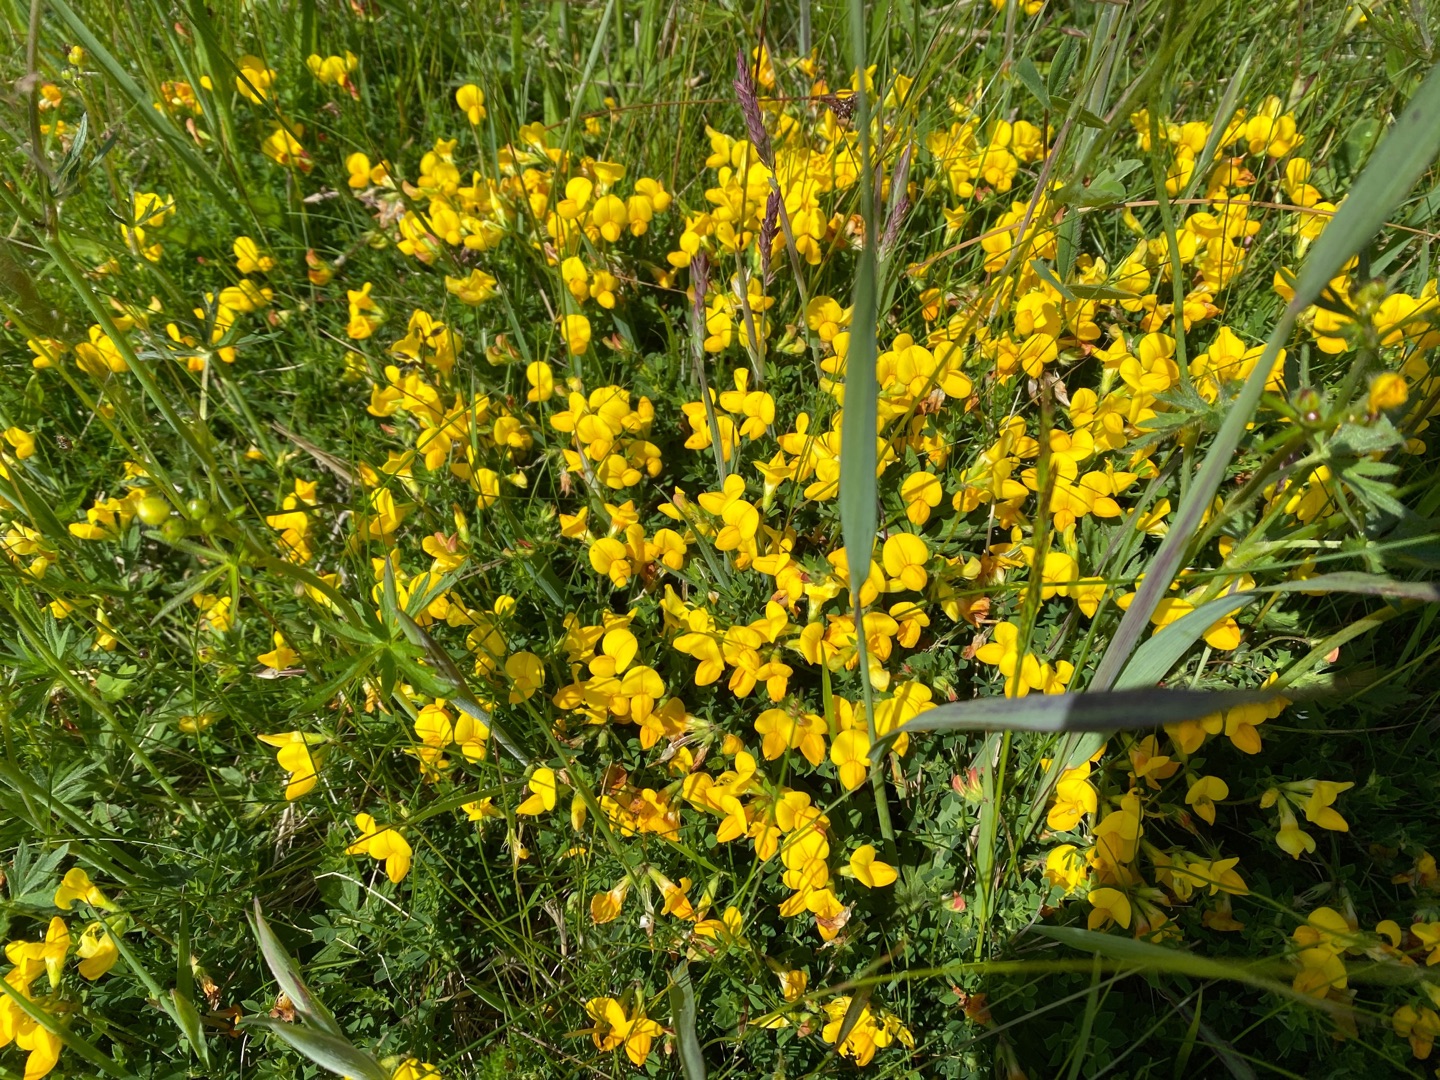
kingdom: Plantae
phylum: Tracheophyta
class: Magnoliopsida
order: Fabales
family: Fabaceae
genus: Lotus
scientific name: Lotus corniculatus
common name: Almindelig kællingetand
